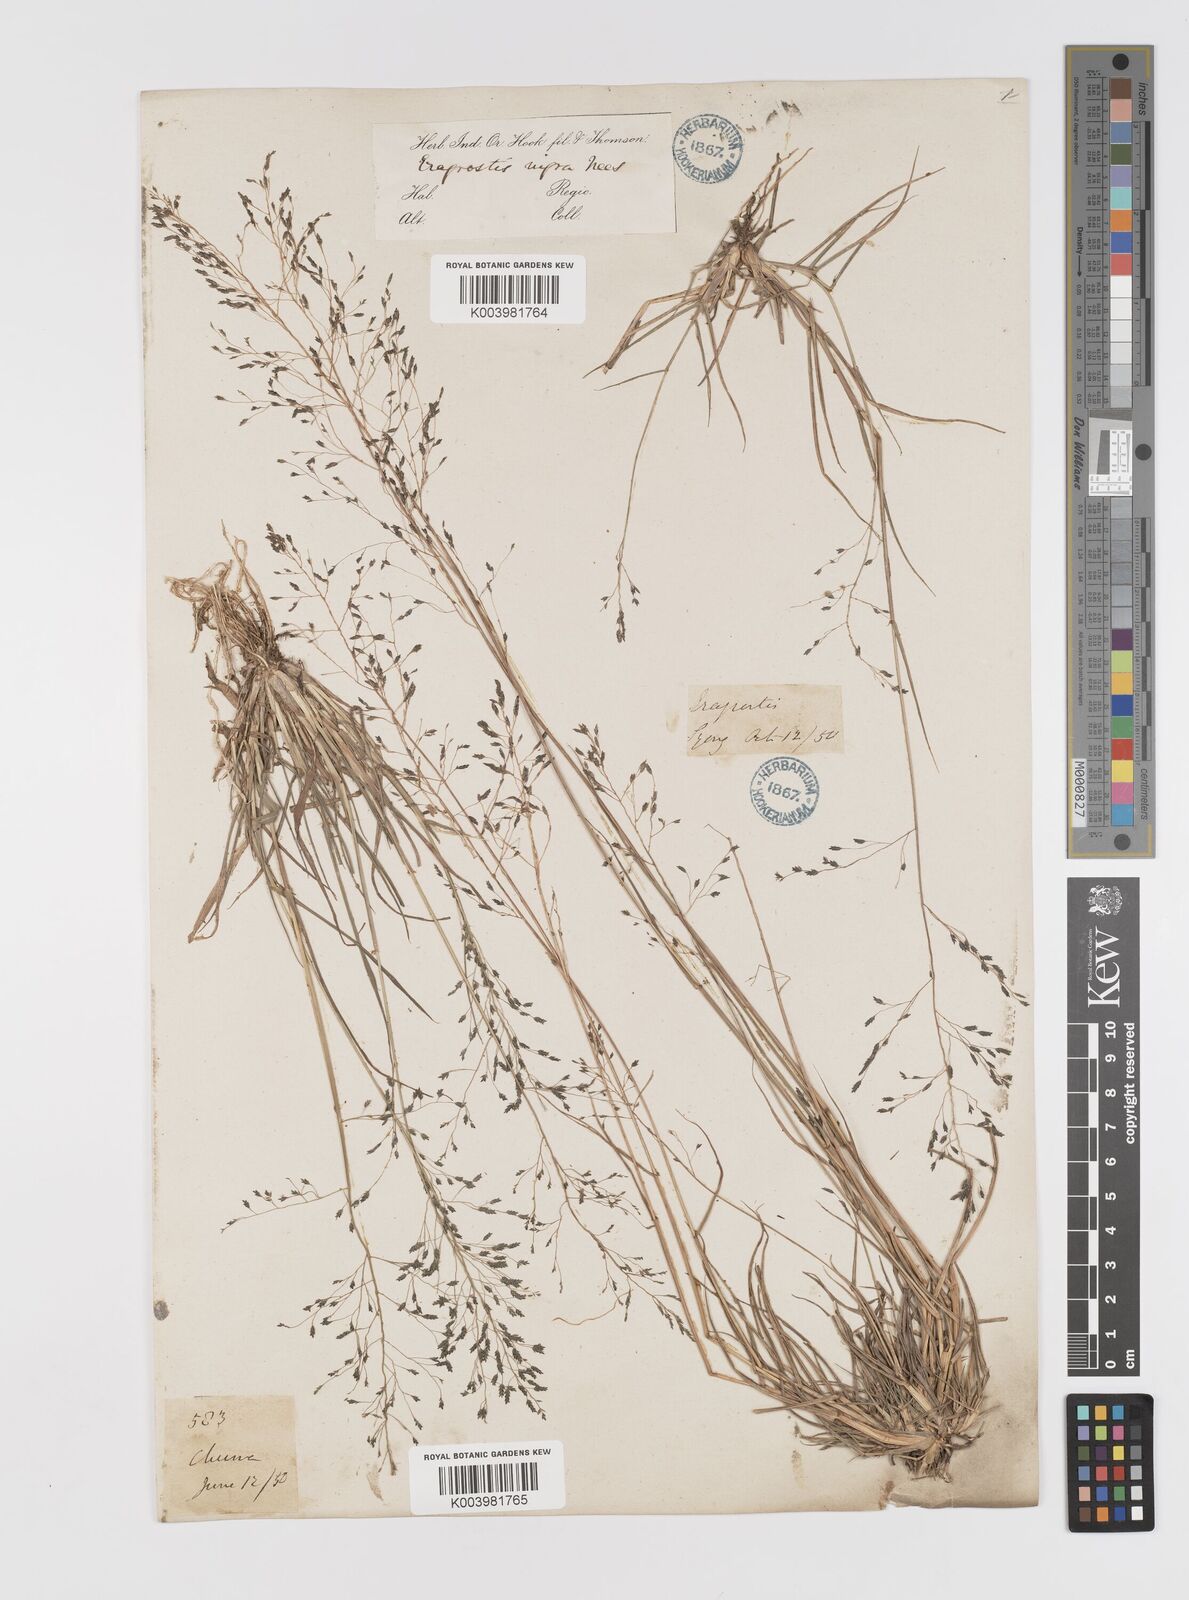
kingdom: Plantae
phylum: Tracheophyta
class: Liliopsida
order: Poales
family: Poaceae
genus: Eragrostis
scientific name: Eragrostis nigra
